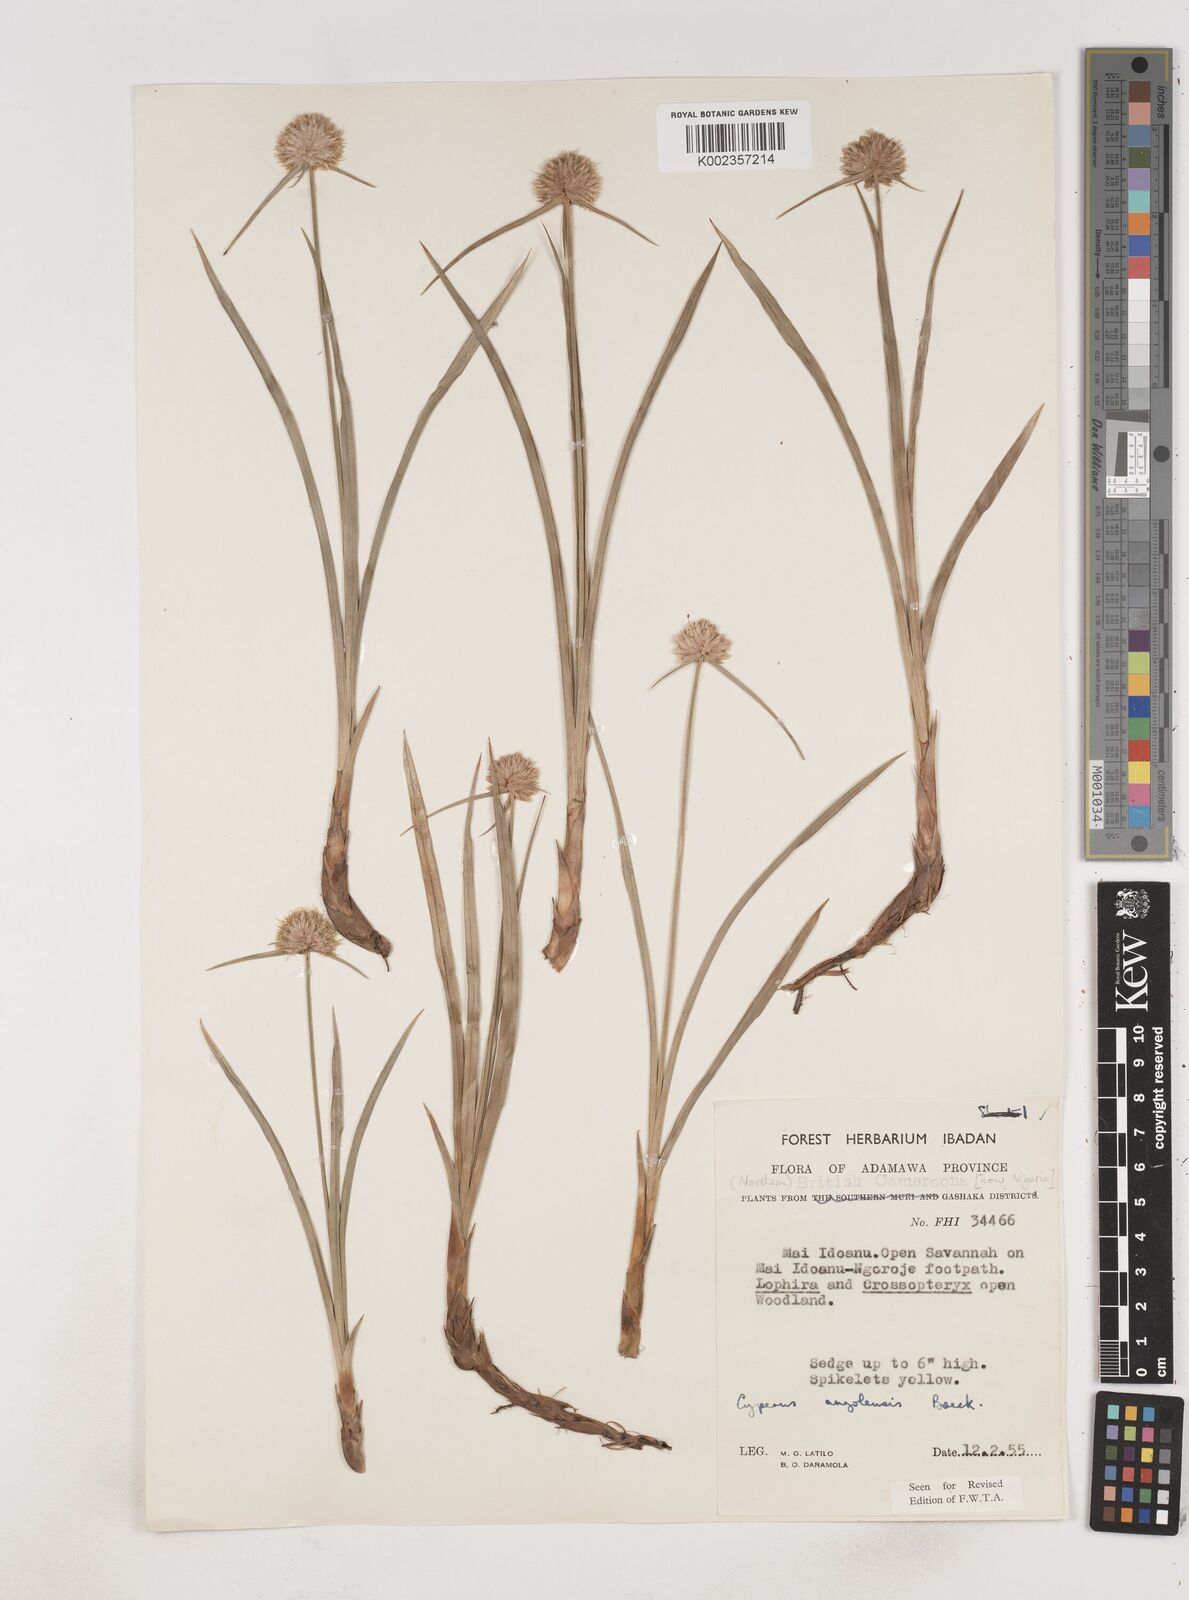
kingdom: Plantae
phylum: Tracheophyta
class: Liliopsida
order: Poales
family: Cyperaceae
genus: Cyperus
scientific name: Cyperus angolensis
